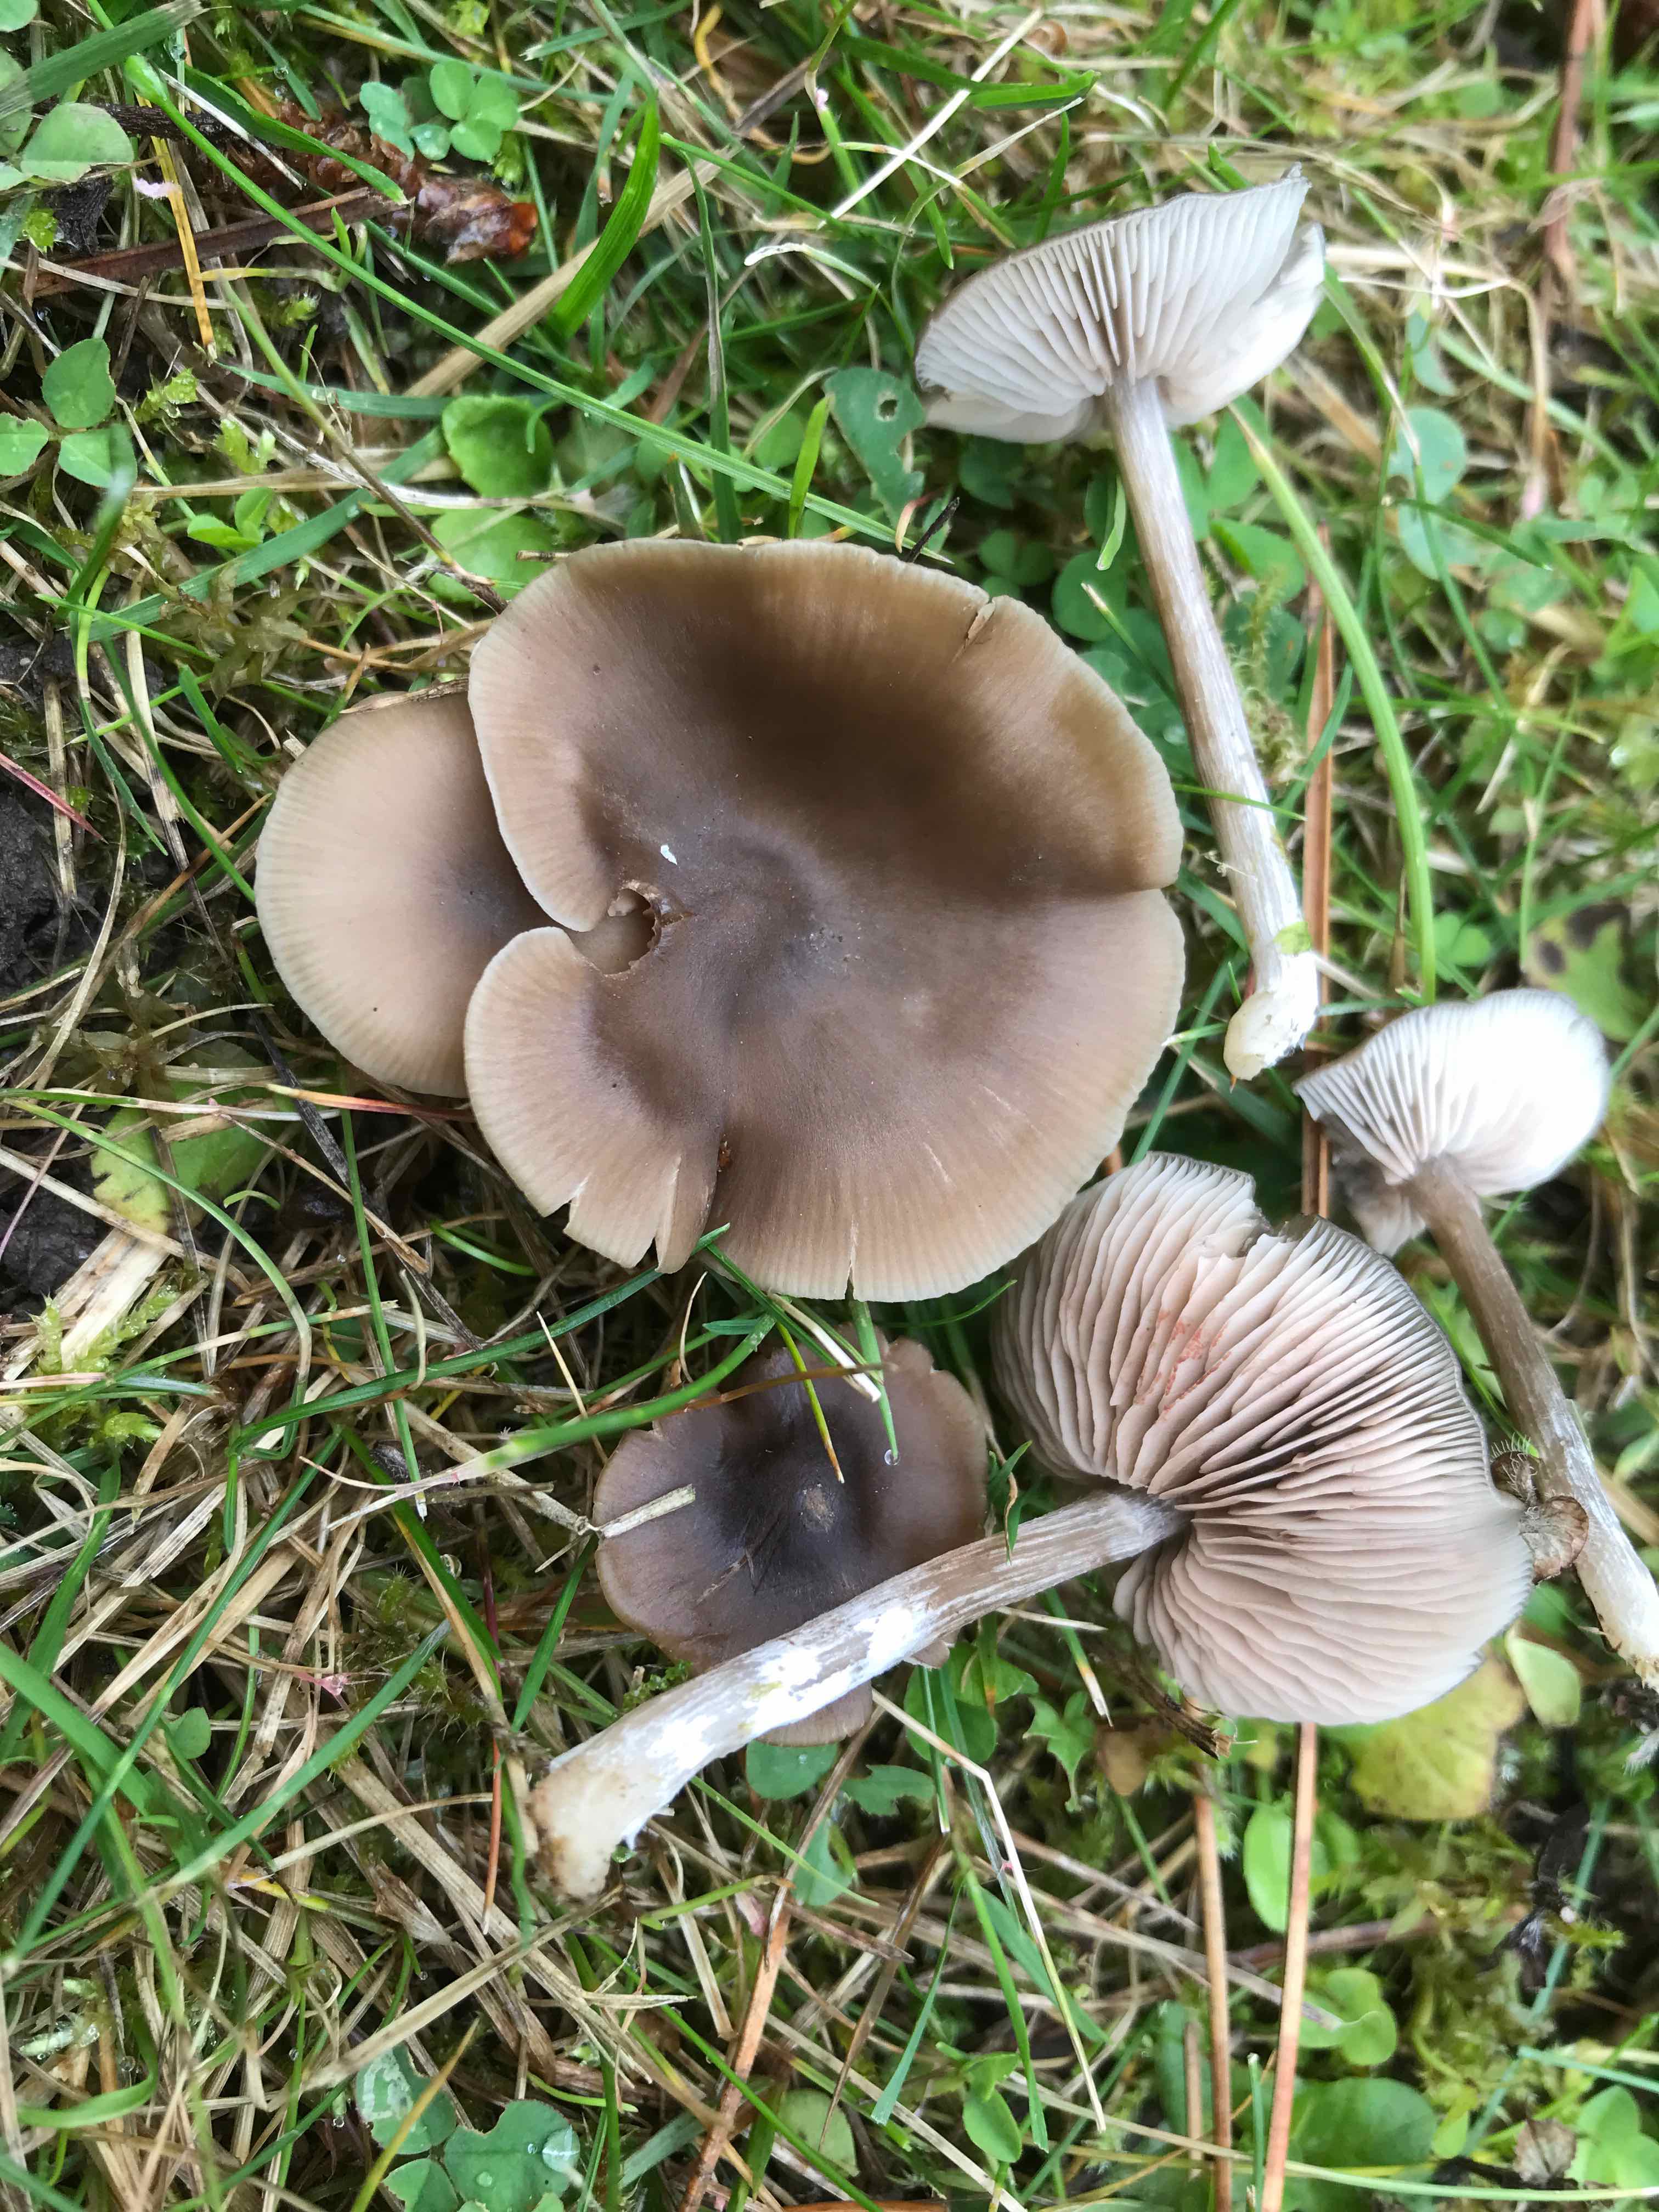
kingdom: Fungi
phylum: Basidiomycota
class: Agaricomycetes
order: Agaricales
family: Entolomataceae
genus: Entoloma
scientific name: Entoloma sericeum
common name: silkeglinsende rødblad
